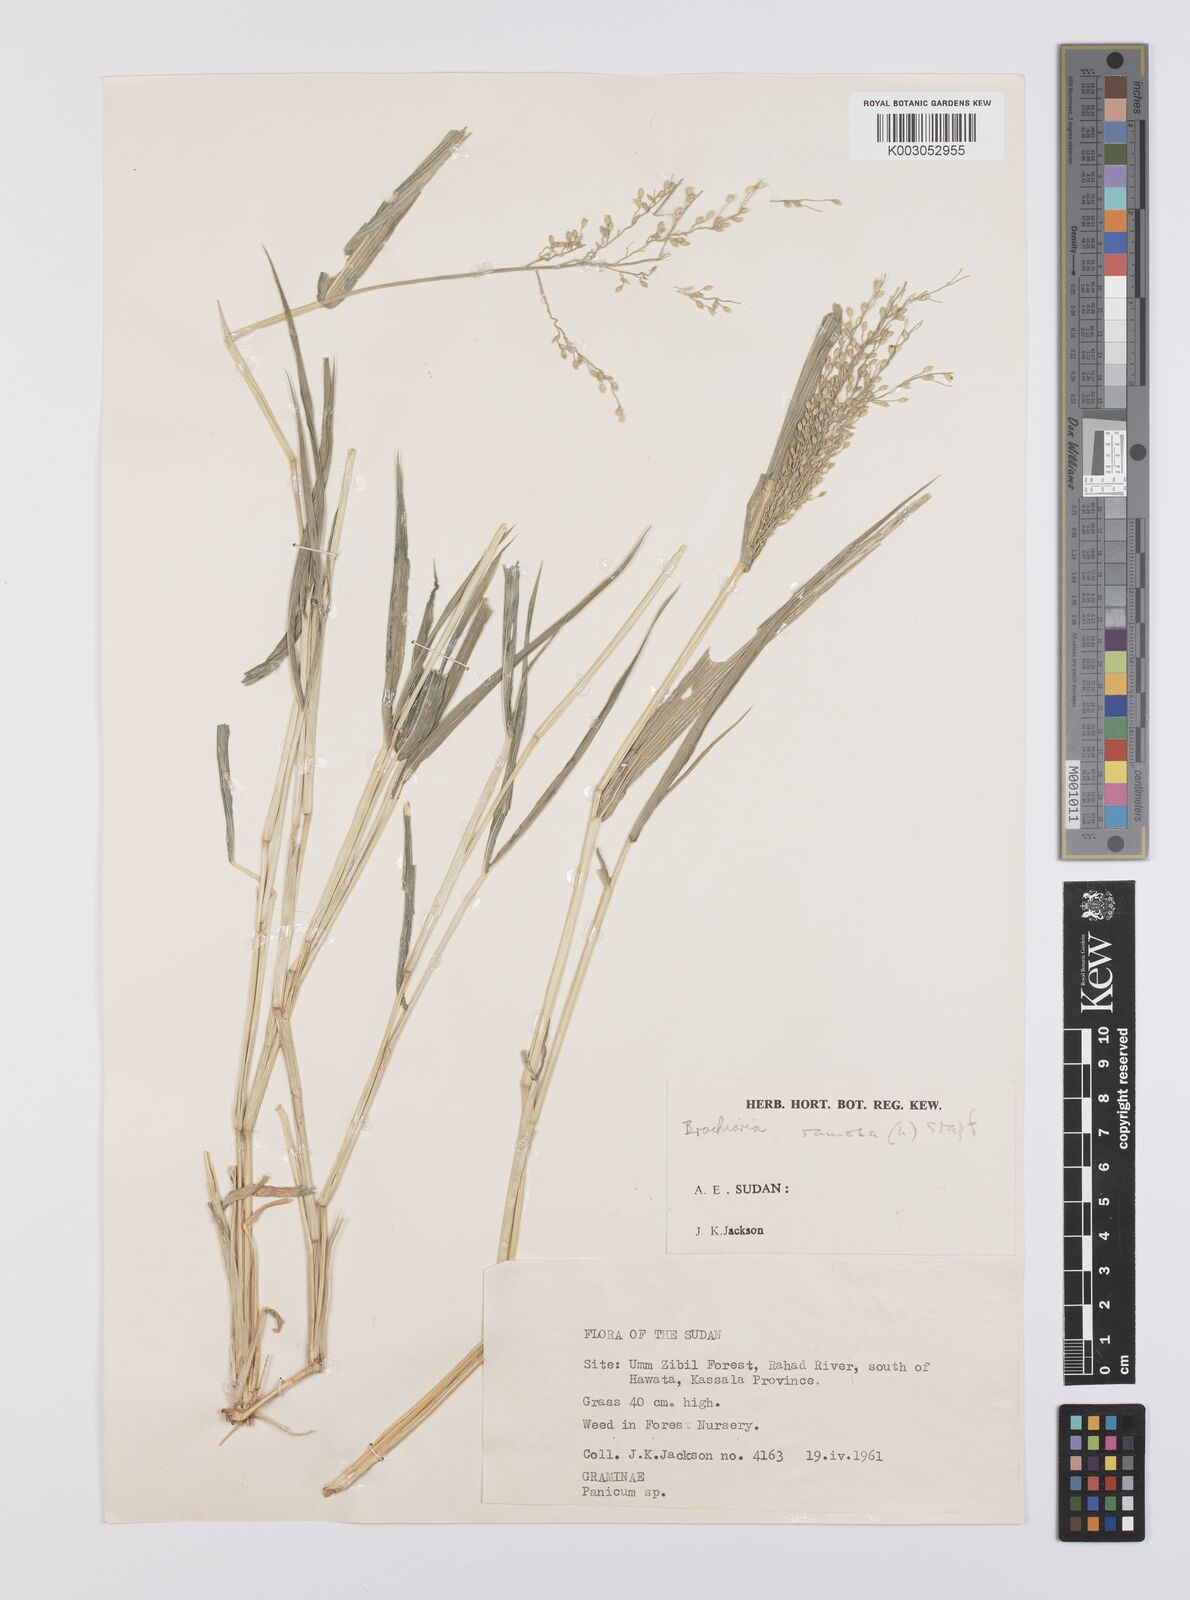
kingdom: Plantae
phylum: Tracheophyta
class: Liliopsida
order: Poales
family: Poaceae
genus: Urochloa
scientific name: Urochloa deflexa
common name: Guinea millet
